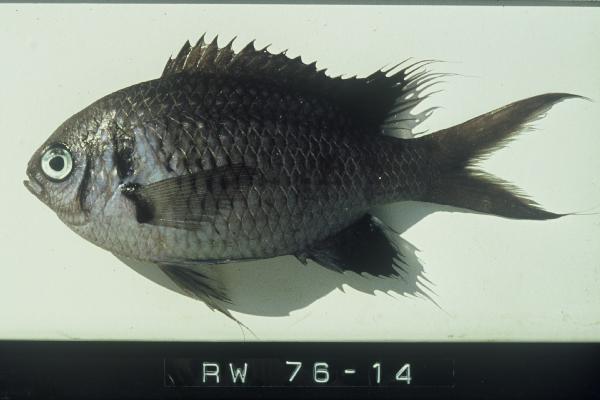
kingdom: Animalia
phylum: Chordata
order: Perciformes
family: Pomacentridae
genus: Chromis
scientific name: Chromis opercularis
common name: Doublebar chromis
